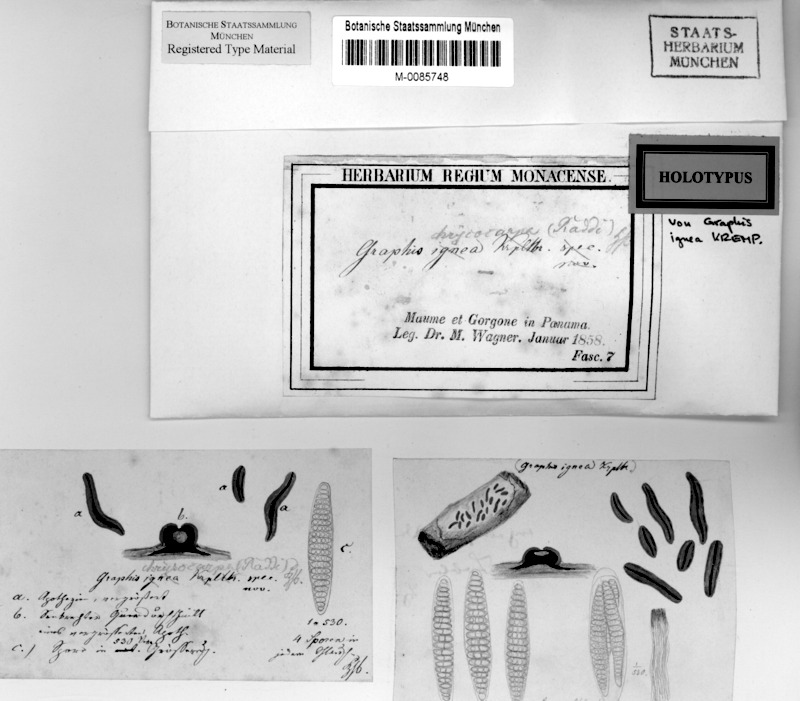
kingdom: Fungi
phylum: Ascomycota
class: Lecanoromycetes
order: Ostropales
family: Graphidaceae
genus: Allographa
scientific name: Allographa chrysocarpa
